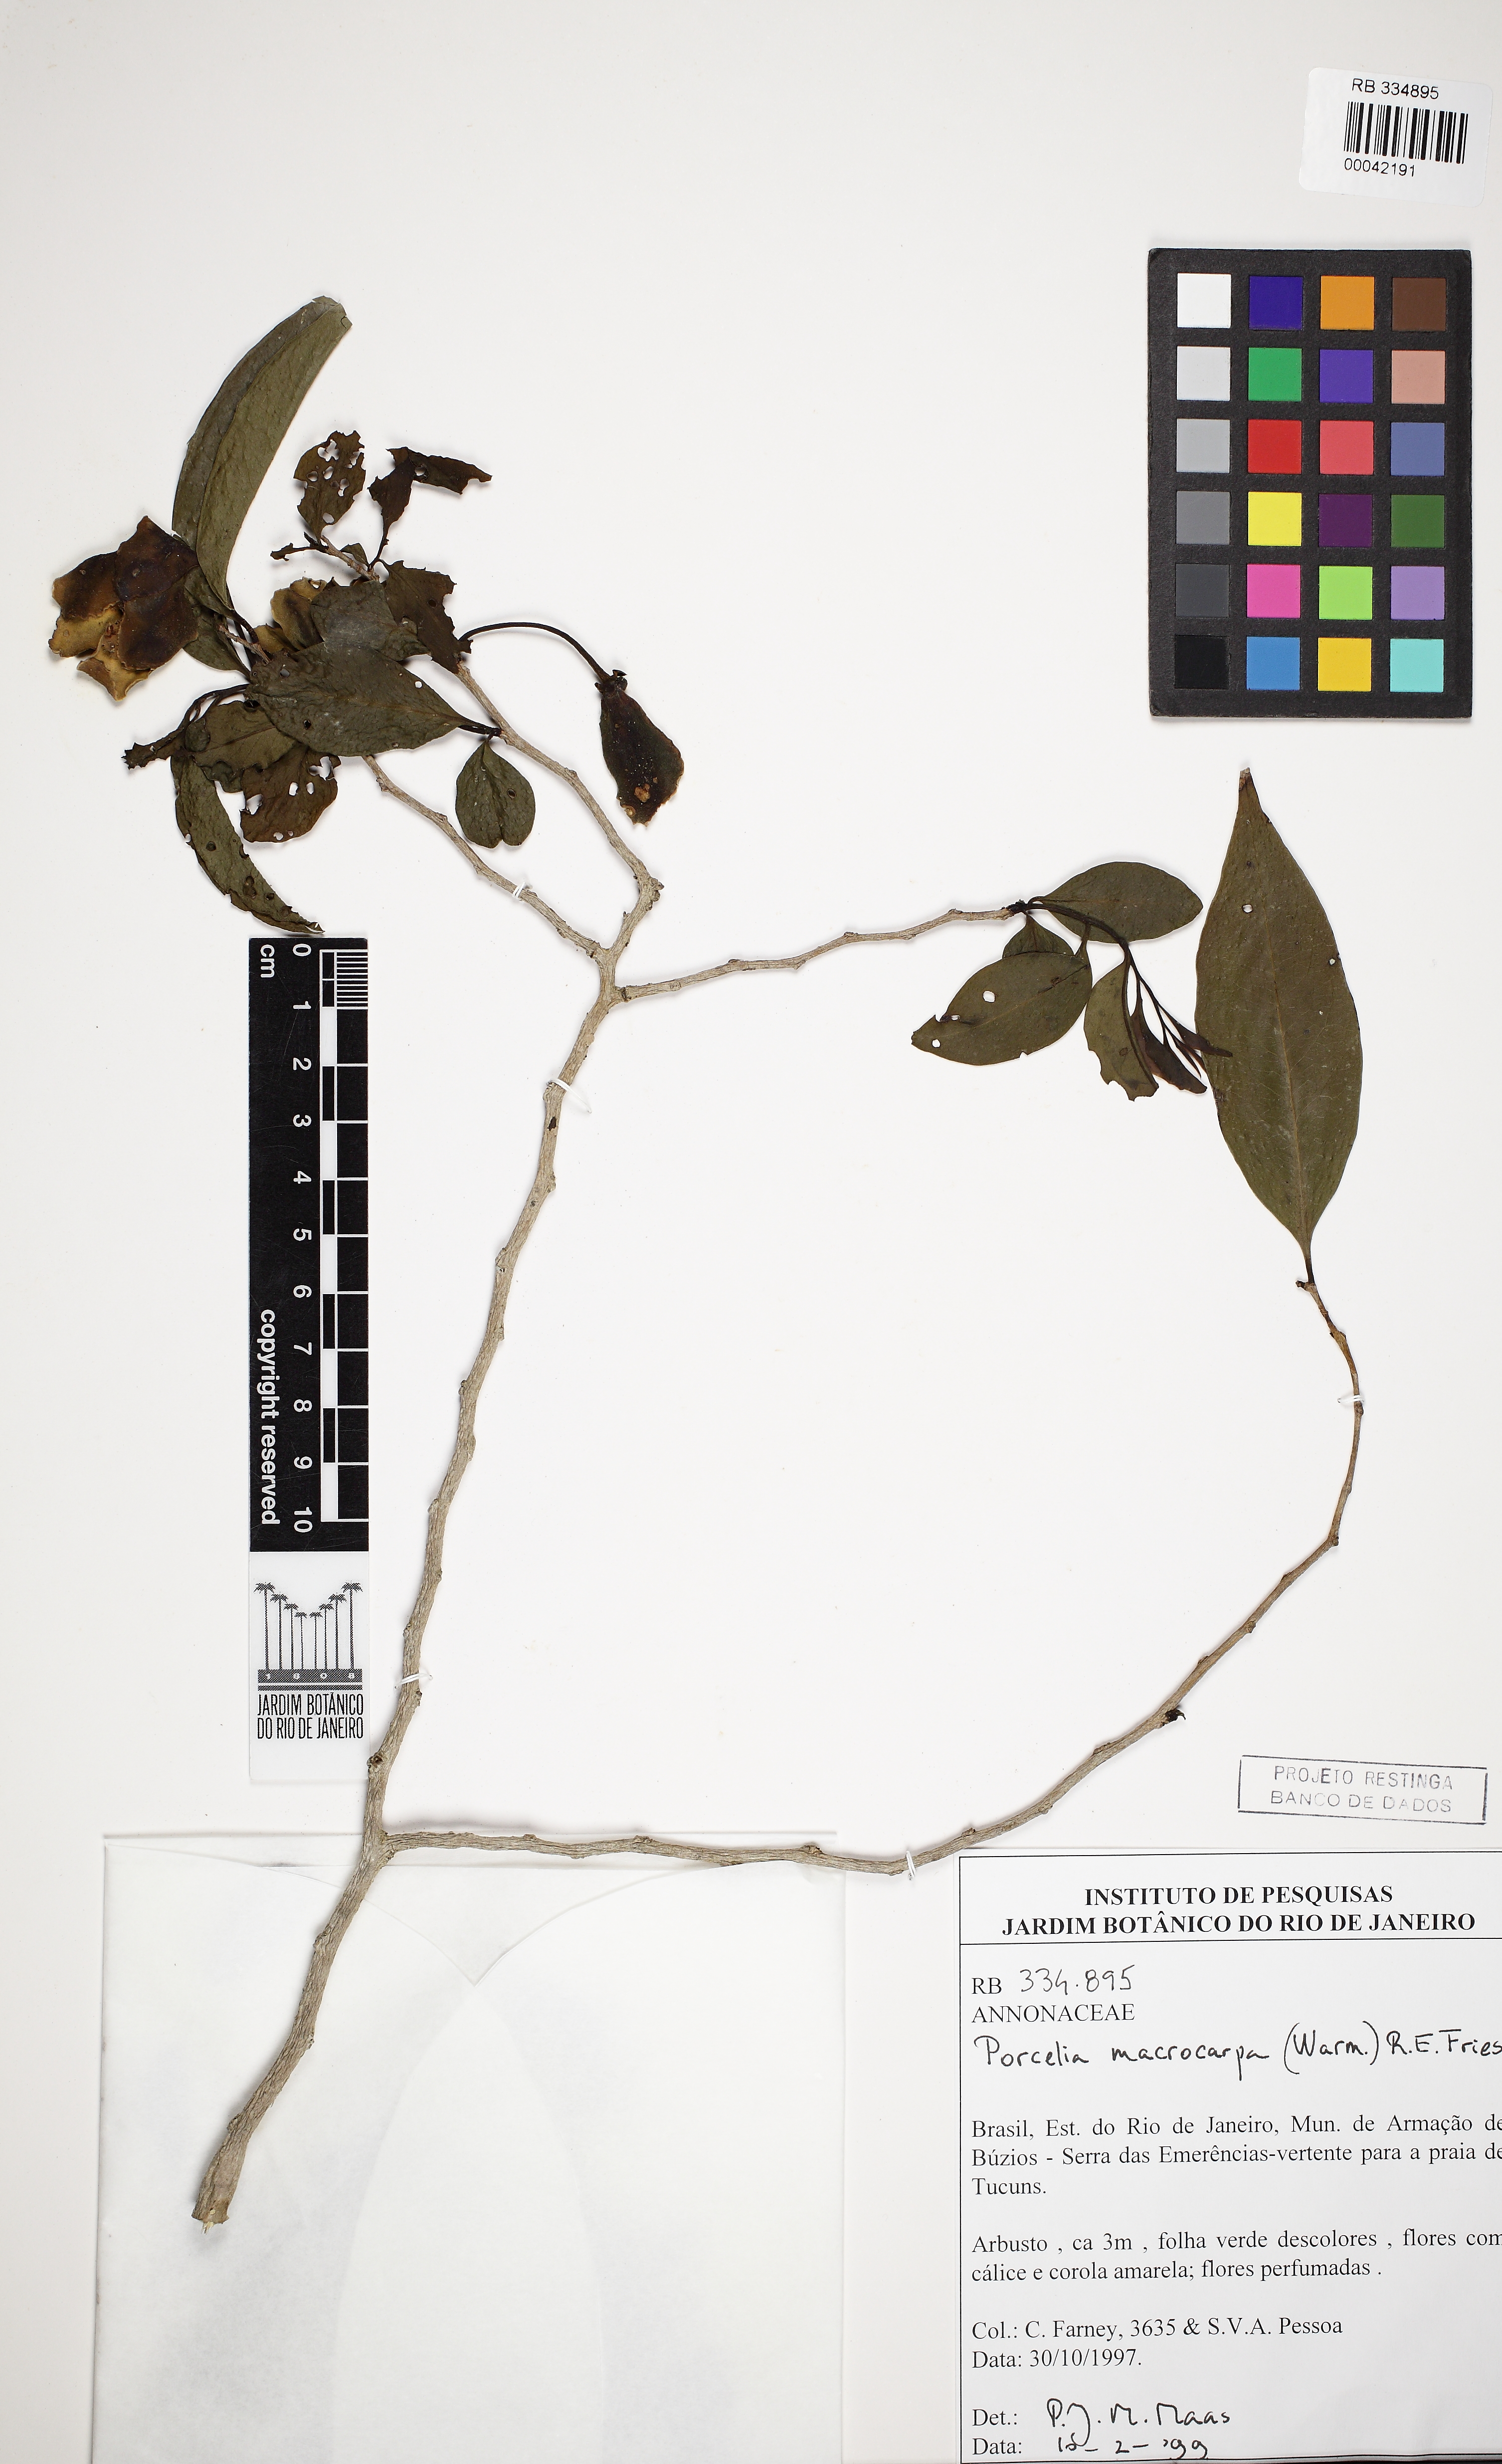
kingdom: Plantae
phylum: Tracheophyta
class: Magnoliopsida
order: Magnoliales
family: Annonaceae
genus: Porcelia
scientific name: Porcelia macrocarpa
